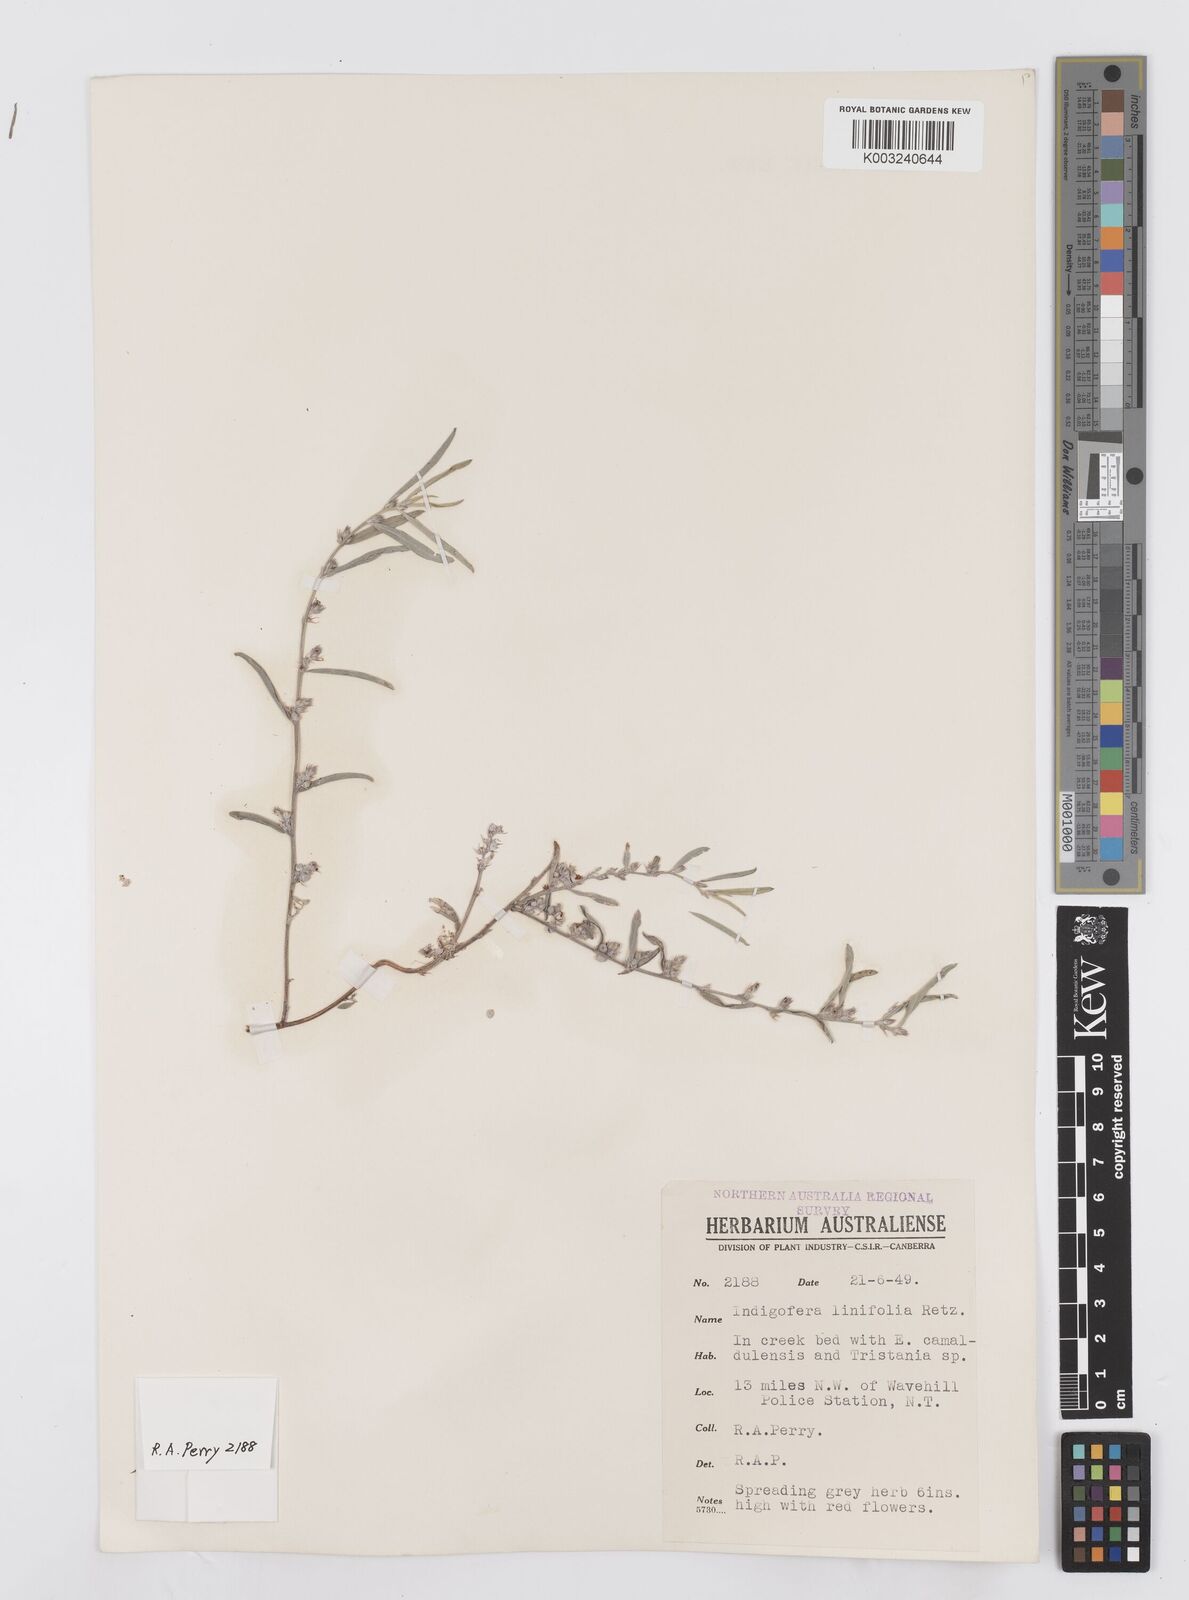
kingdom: Plantae
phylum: Tracheophyta
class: Magnoliopsida
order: Fabales
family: Fabaceae
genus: Indigofera
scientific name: Indigofera linifolia
